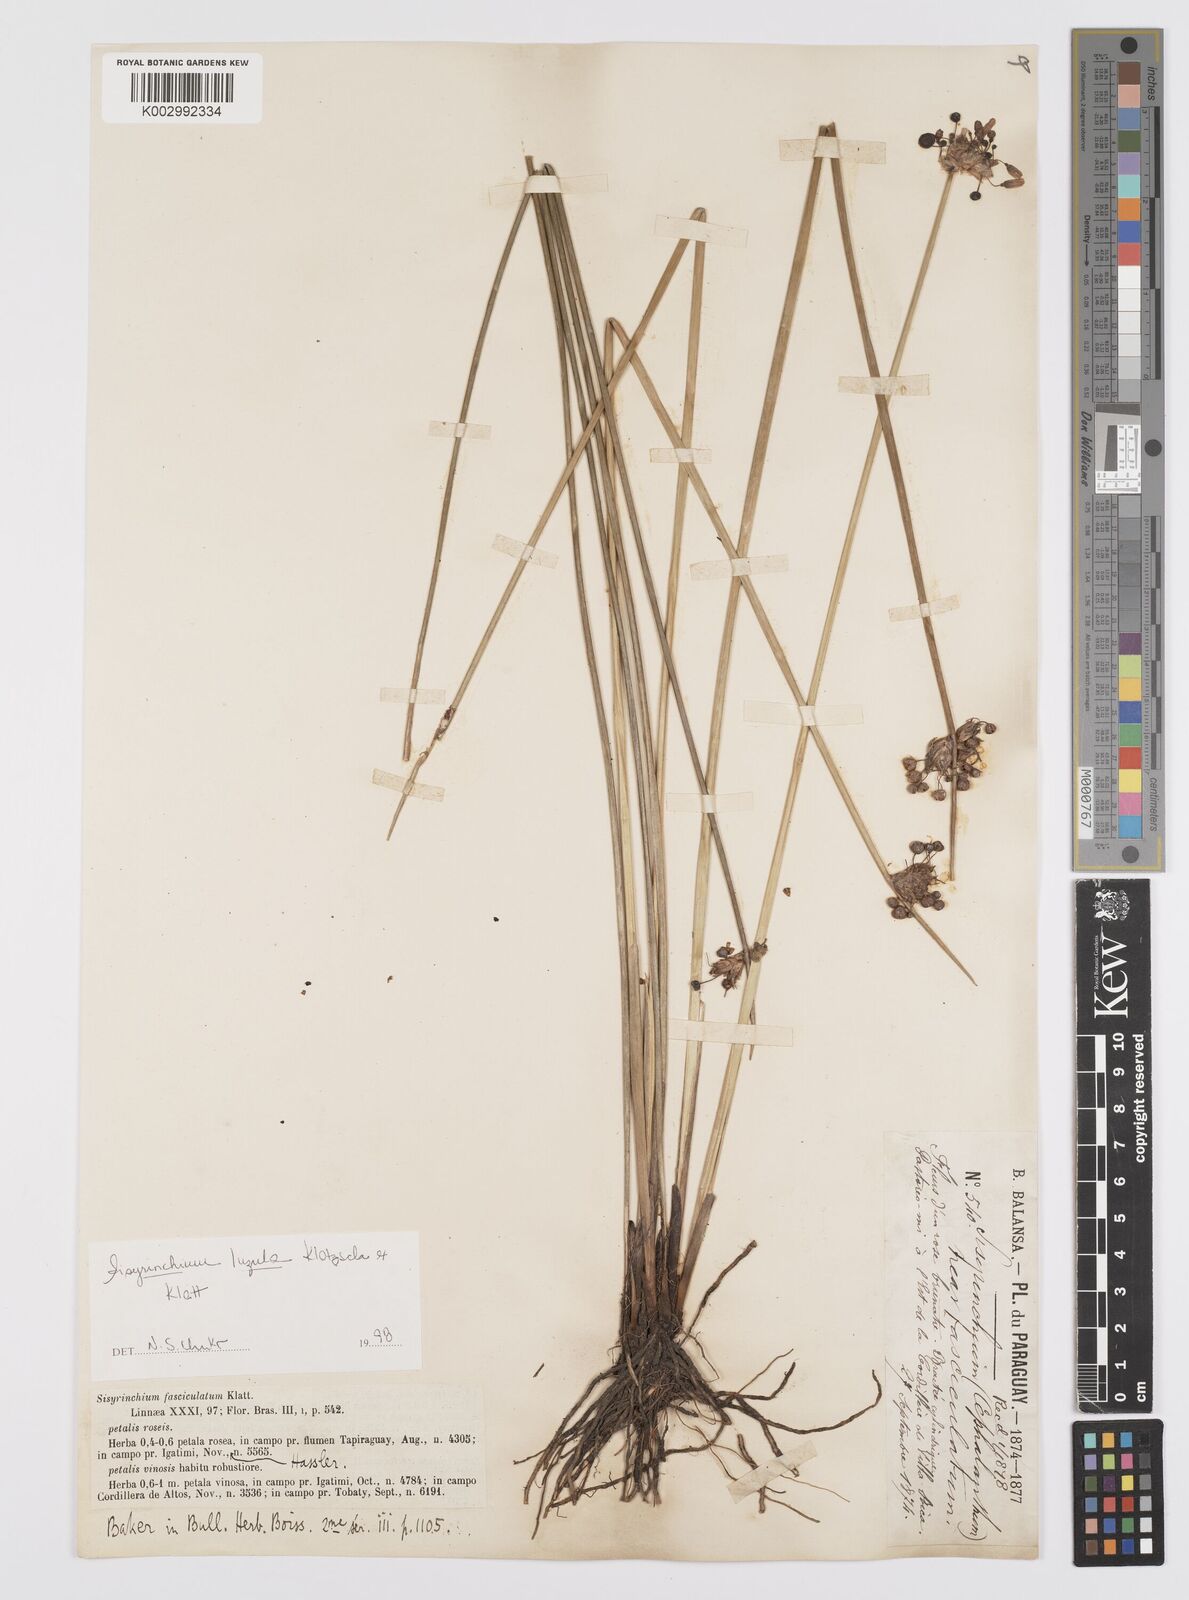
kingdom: Plantae
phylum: Tracheophyta
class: Liliopsida
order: Asparagales
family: Iridaceae
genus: Sisyrinchium
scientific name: Sisyrinchium luzula
